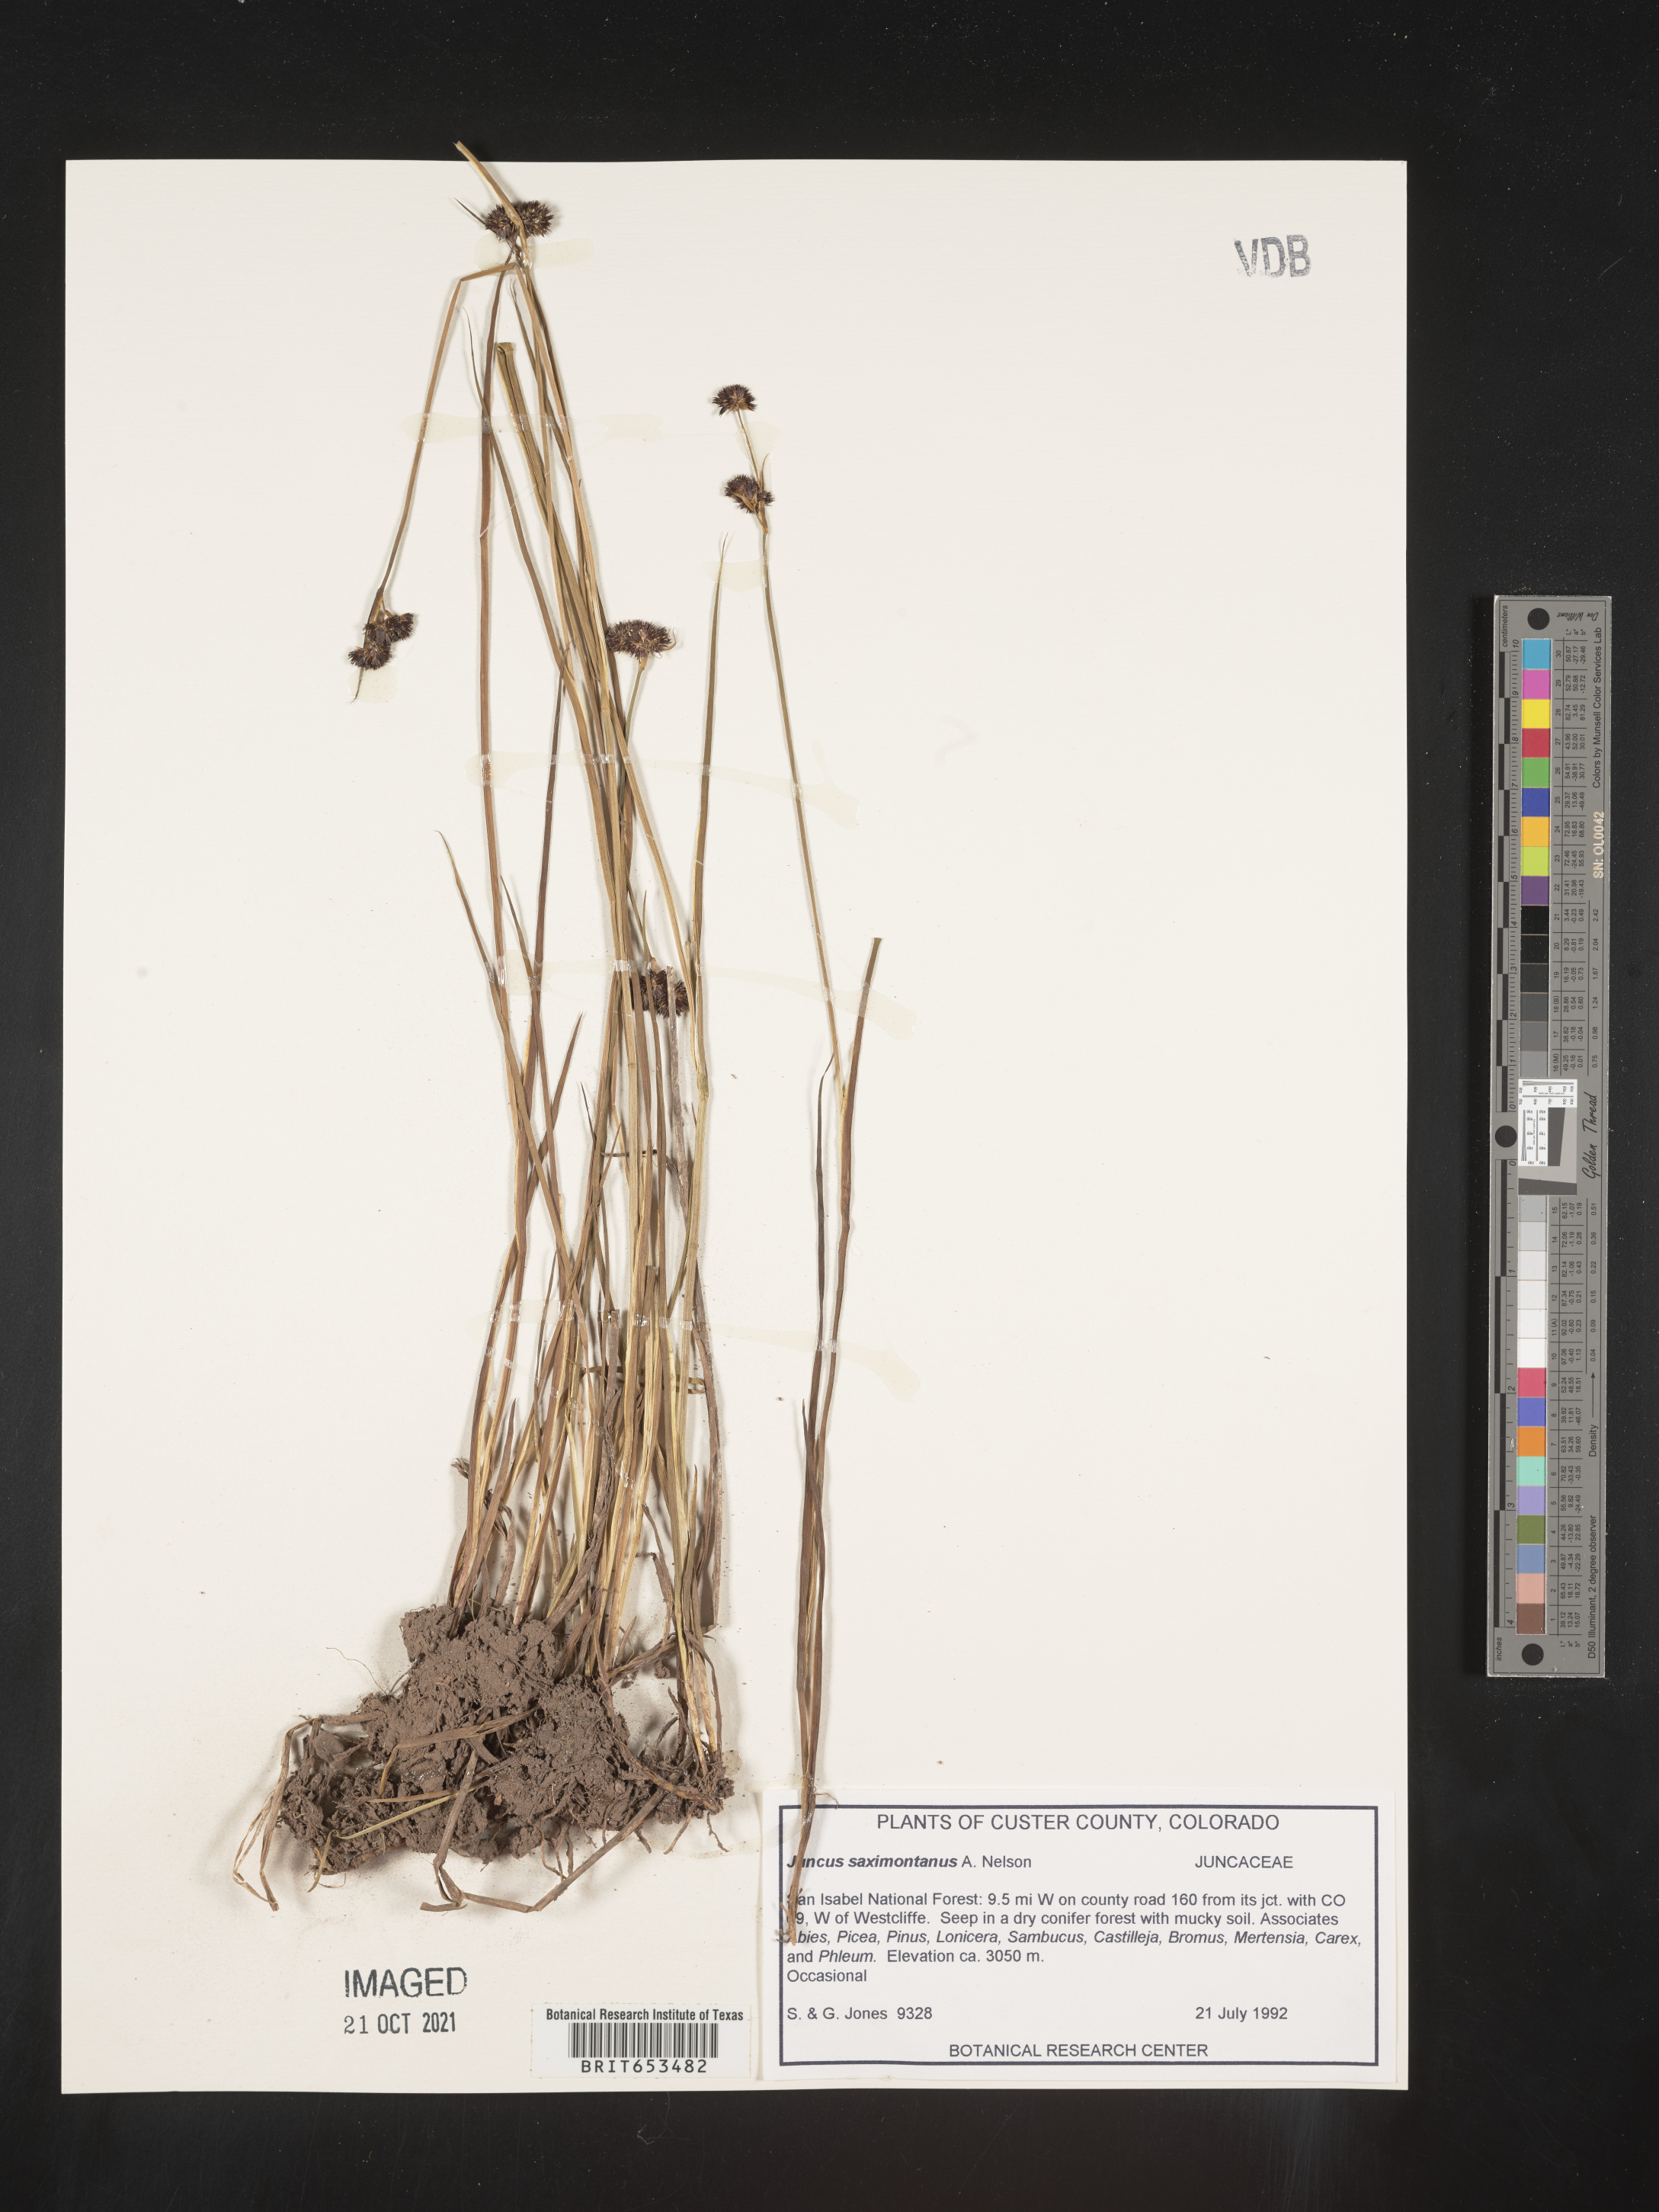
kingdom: Plantae
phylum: Tracheophyta
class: Liliopsida
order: Poales
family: Juncaceae
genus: Juncus
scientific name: Juncus saximontanus
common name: Rocky mountain rush
